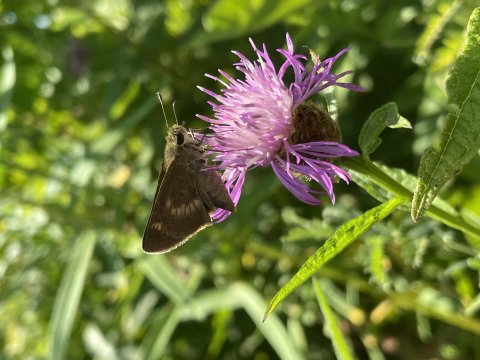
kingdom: Animalia
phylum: Arthropoda
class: Insecta
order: Lepidoptera
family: Hesperiidae
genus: Polites
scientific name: Polites egeremet
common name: Northern Broken-Dash
